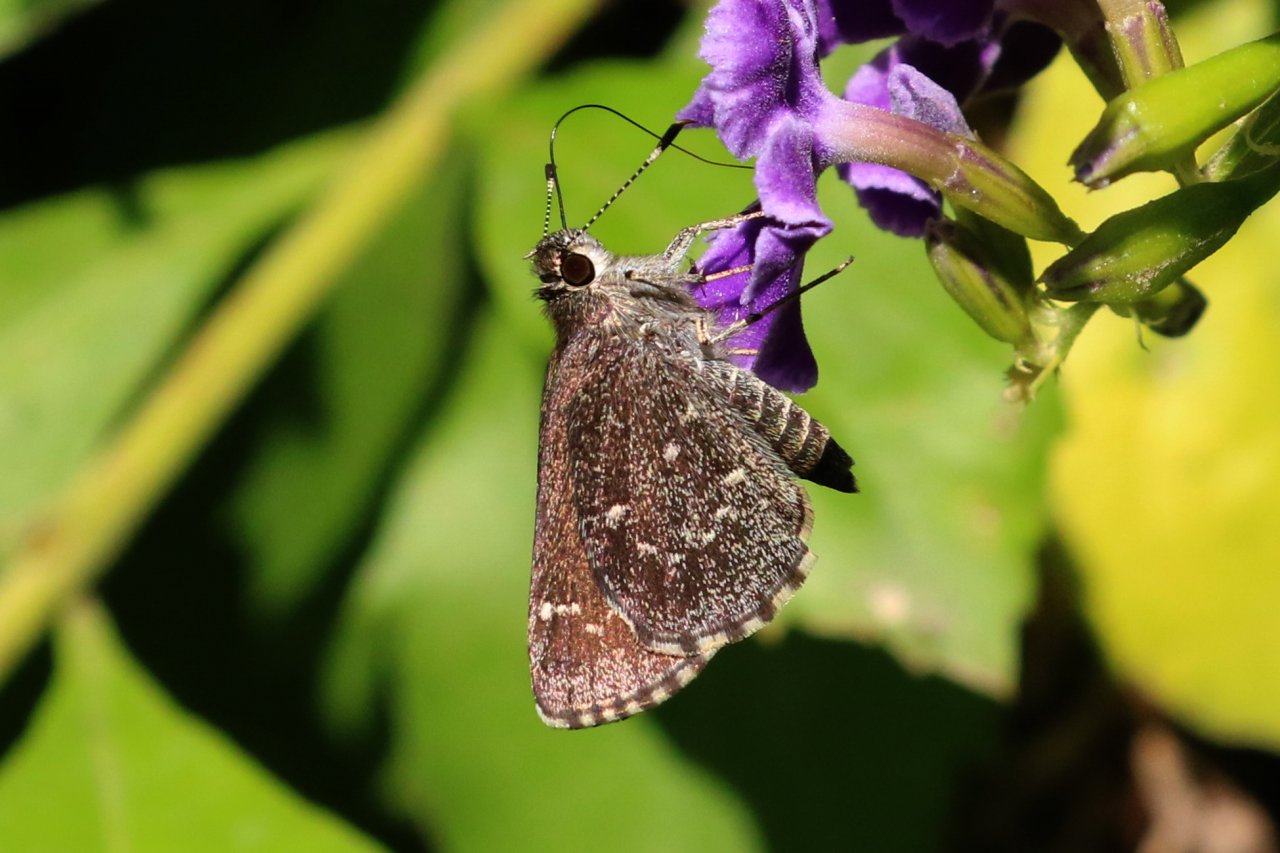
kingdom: Animalia
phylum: Arthropoda
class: Insecta
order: Lepidoptera
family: Hesperiidae
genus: Mastor
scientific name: Mastor celia
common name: Celia's Roadside-Skipper
